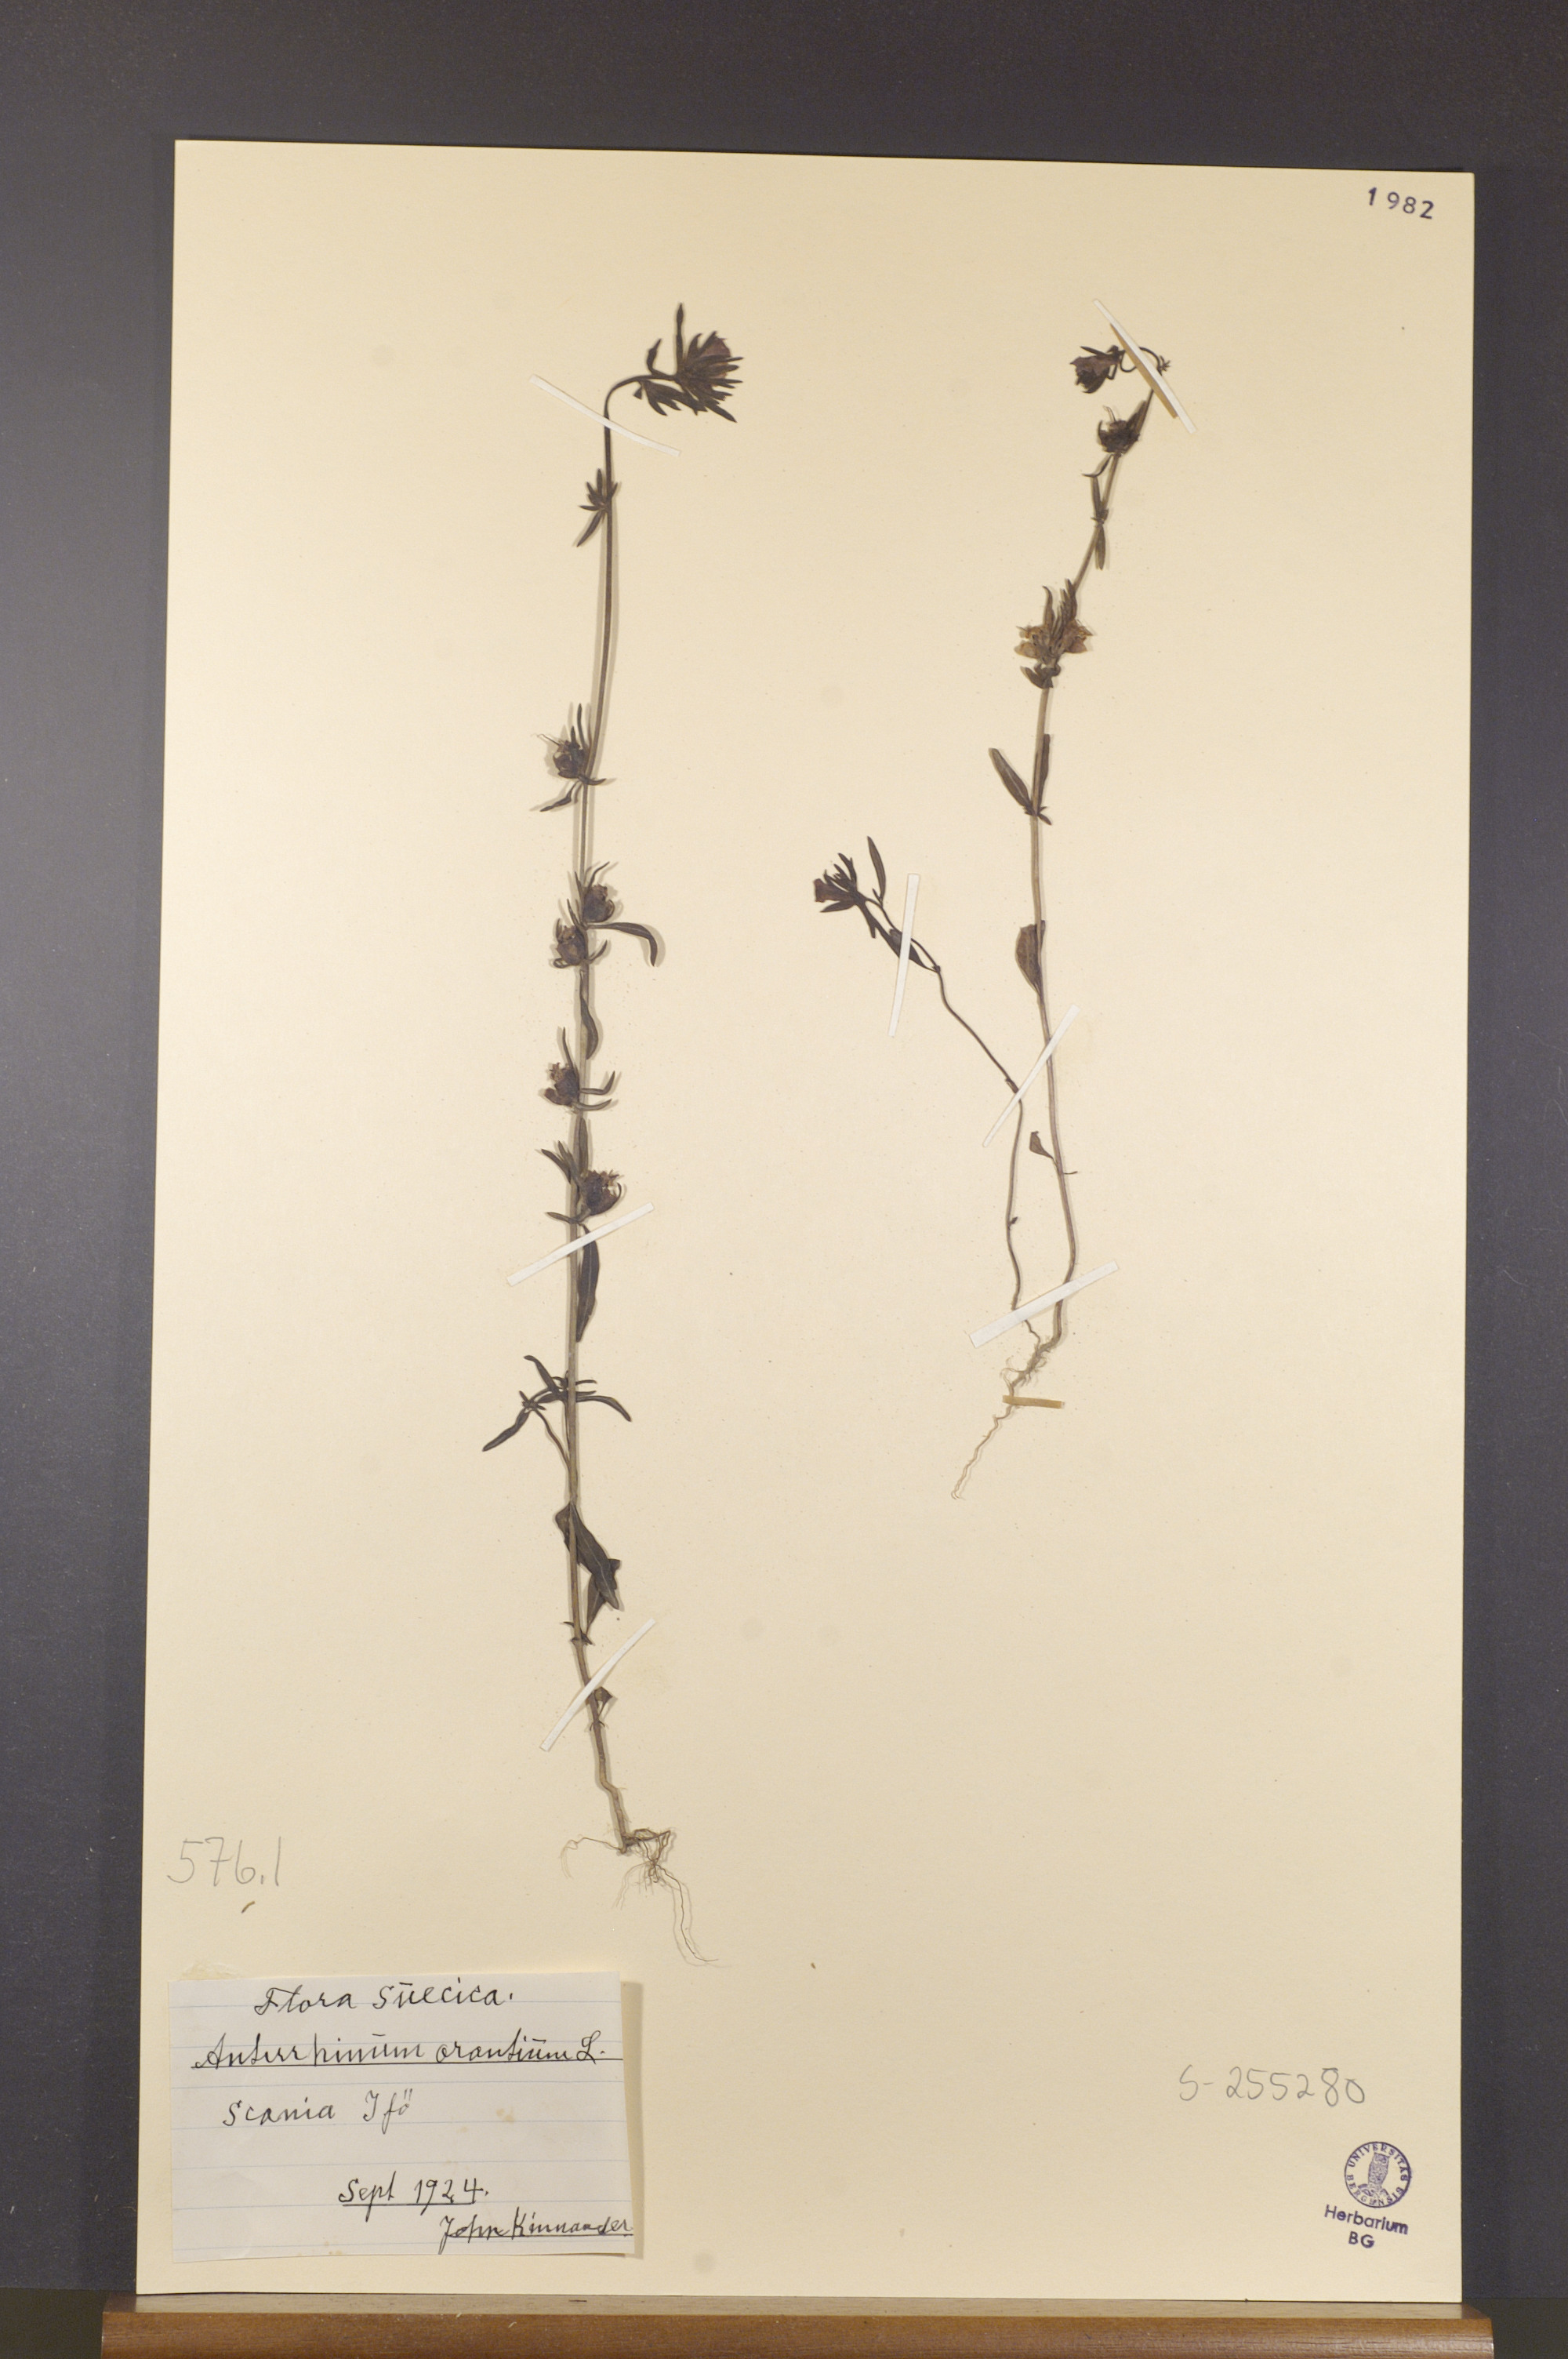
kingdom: Plantae
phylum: Tracheophyta
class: Magnoliopsida
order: Lamiales
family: Plantaginaceae
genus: Misopates
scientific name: Misopates orontium
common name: Weasel's-snout
